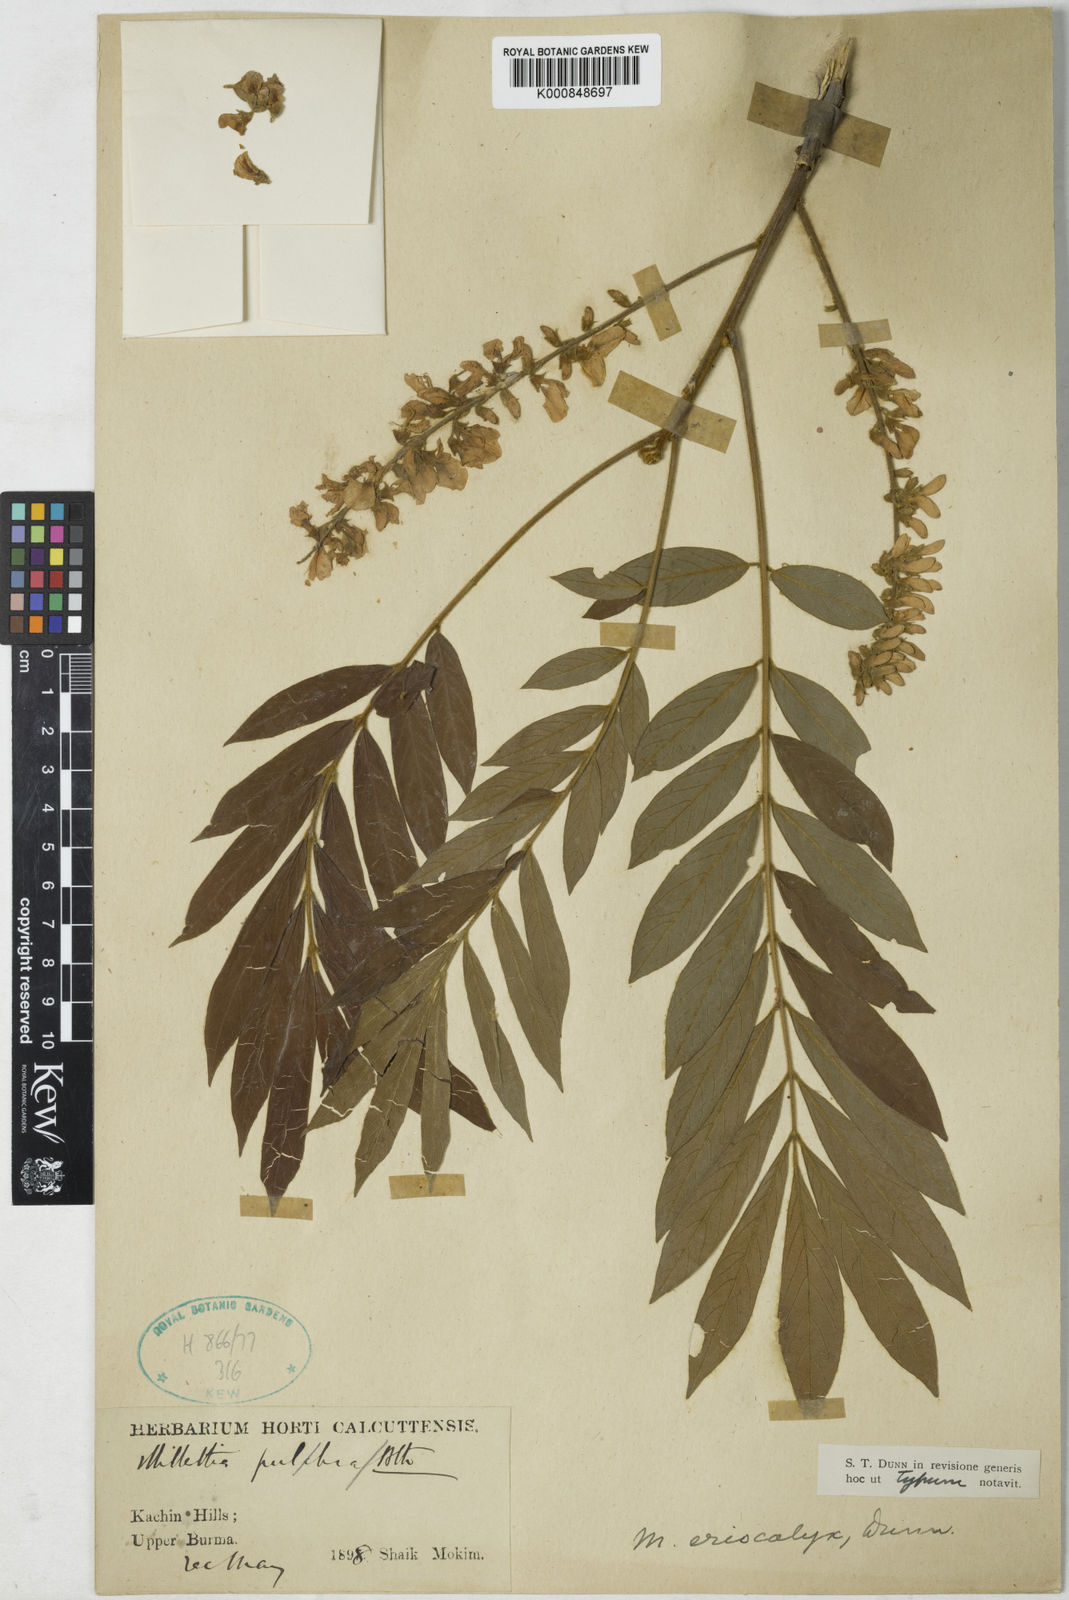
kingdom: Plantae
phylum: Tracheophyta
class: Magnoliopsida
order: Fabales
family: Fabaceae
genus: Millettia
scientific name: Millettia pulchra
